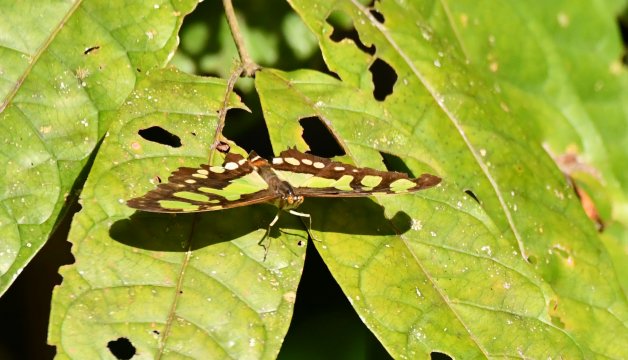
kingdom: Animalia
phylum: Arthropoda
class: Insecta
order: Lepidoptera
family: Nymphalidae
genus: Siproeta
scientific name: Siproeta stelenes
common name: Malachite
